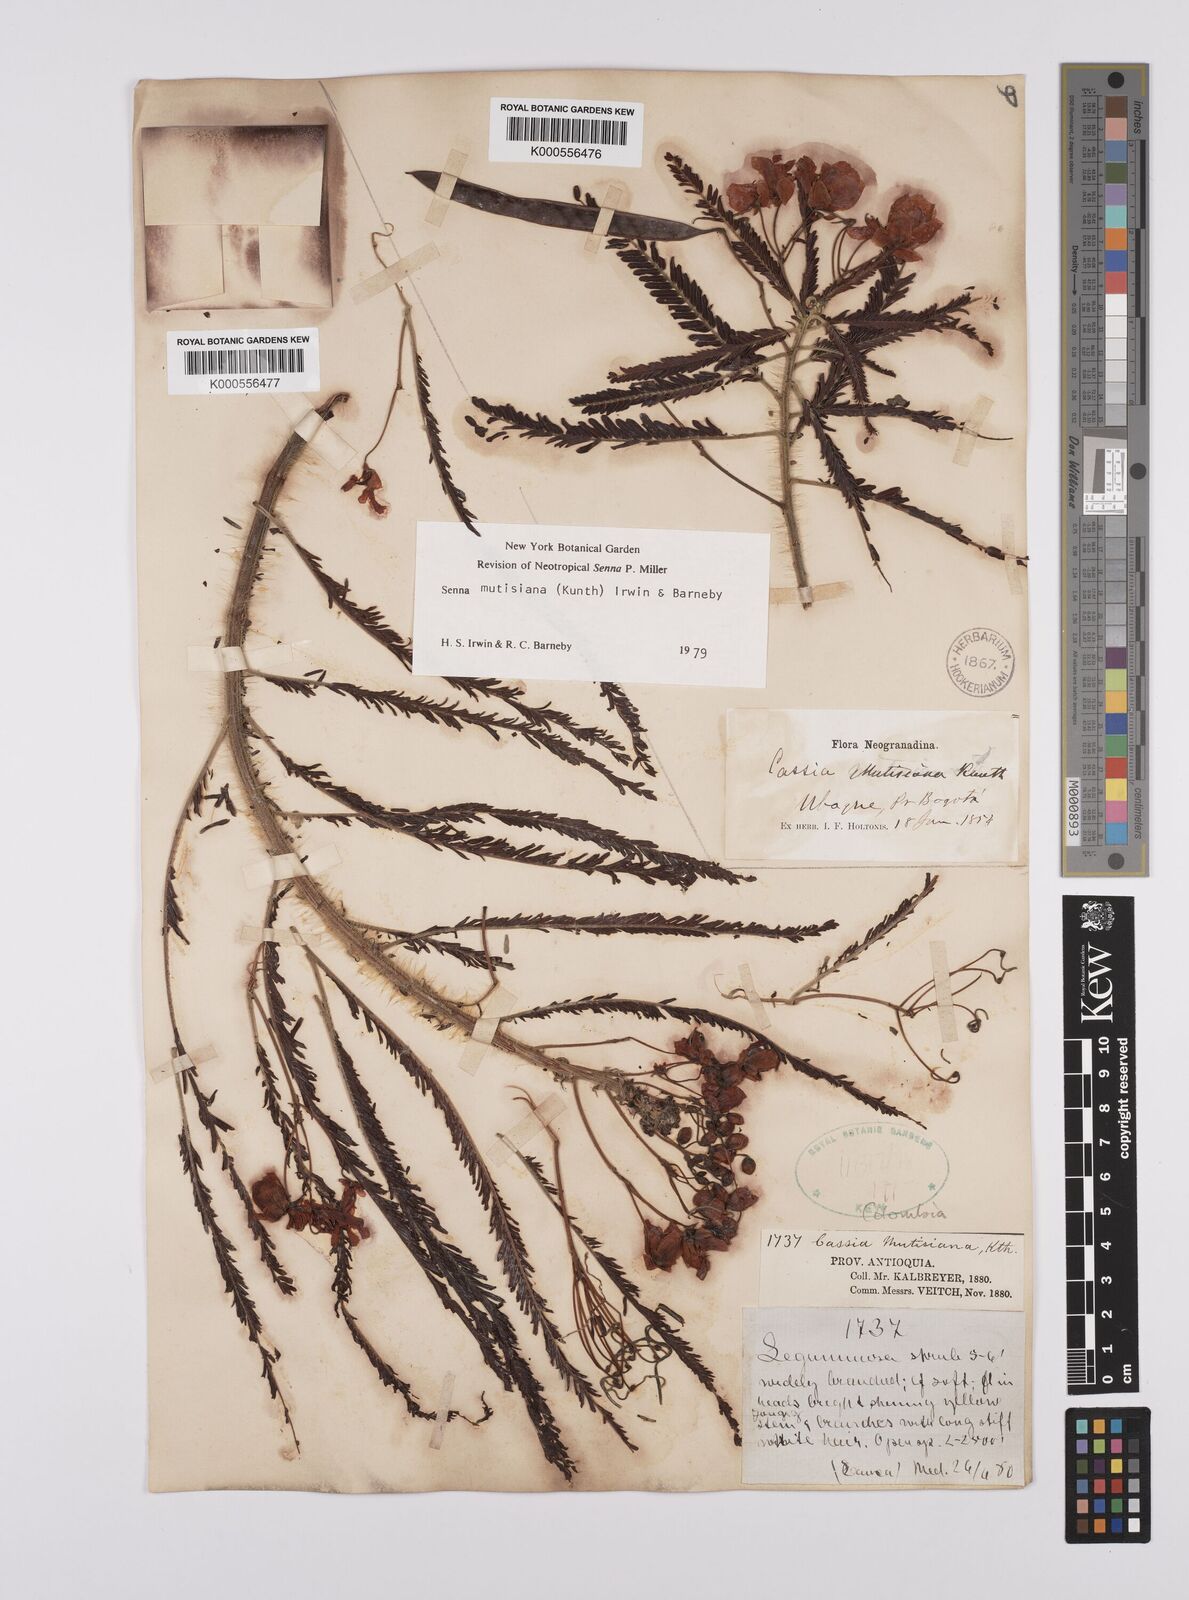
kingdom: Plantae
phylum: Tracheophyta
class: Magnoliopsida
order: Fabales
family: Fabaceae
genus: Senna
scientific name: Senna mutisiana
